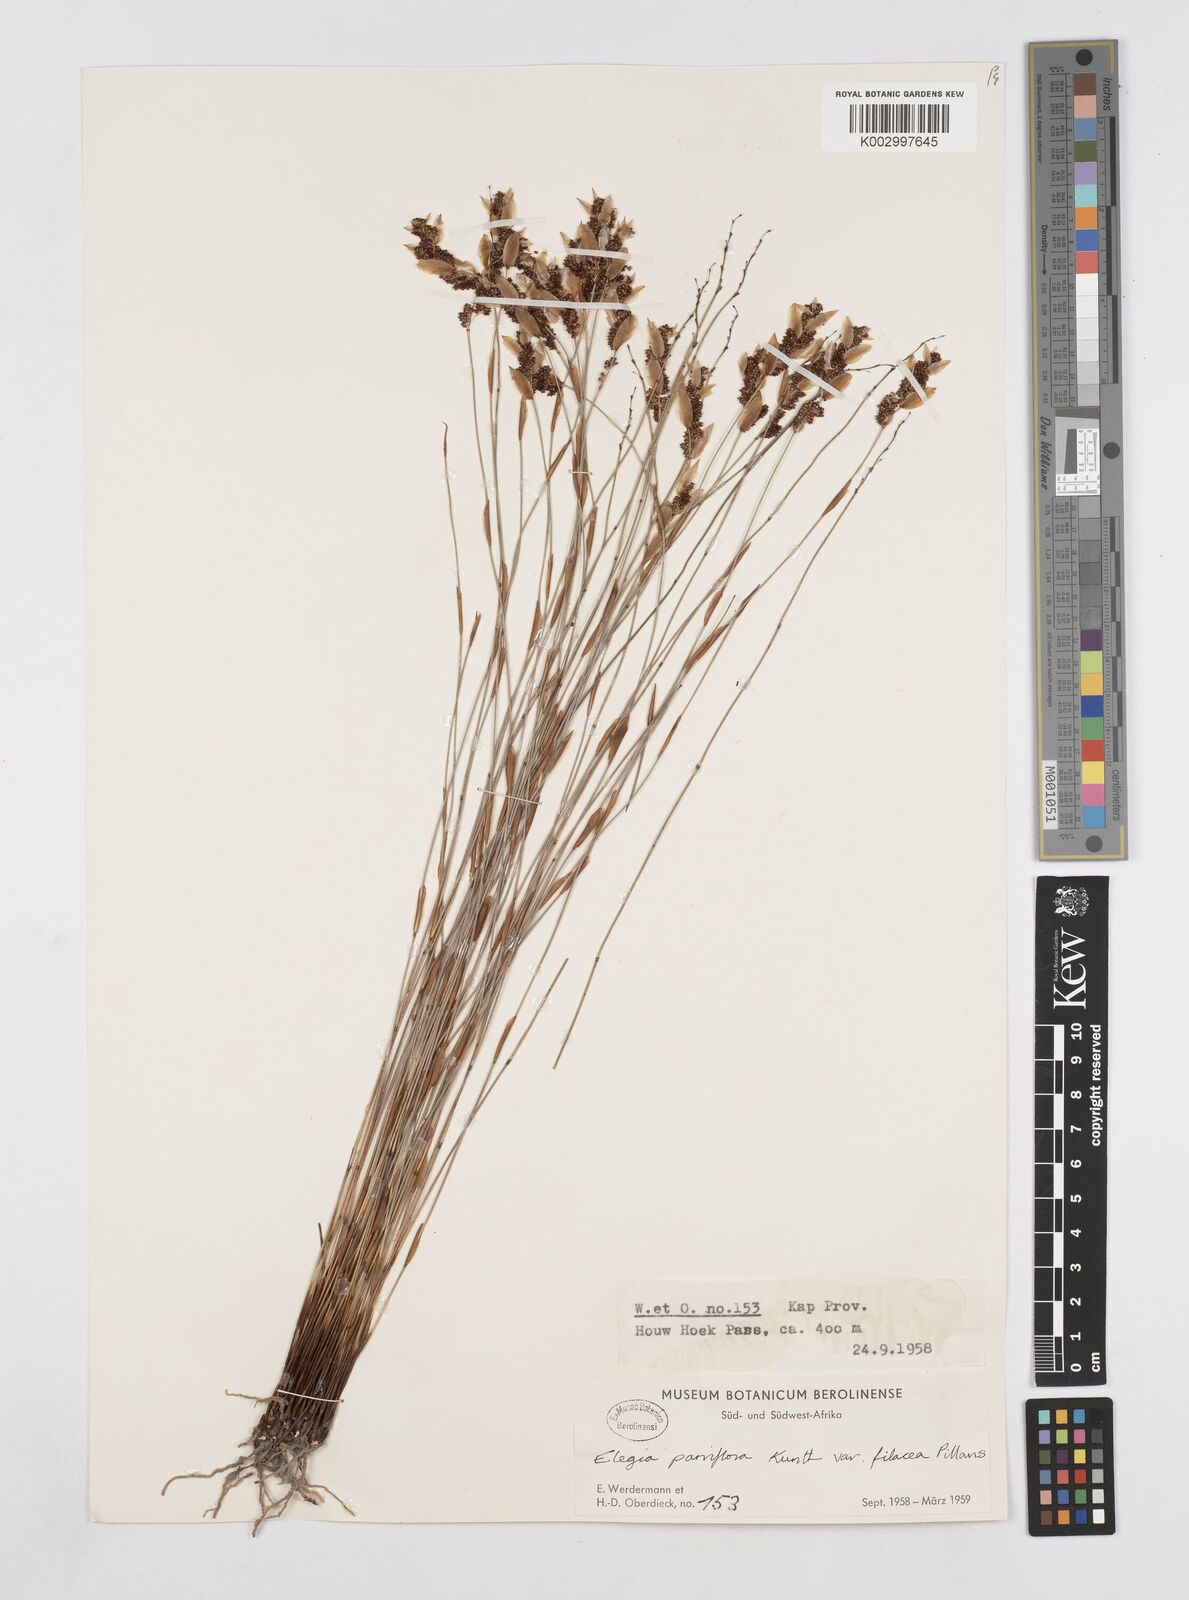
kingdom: Plantae
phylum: Tracheophyta
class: Liliopsida
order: Poales
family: Restionaceae
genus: Cannomois
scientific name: Cannomois parviflora
